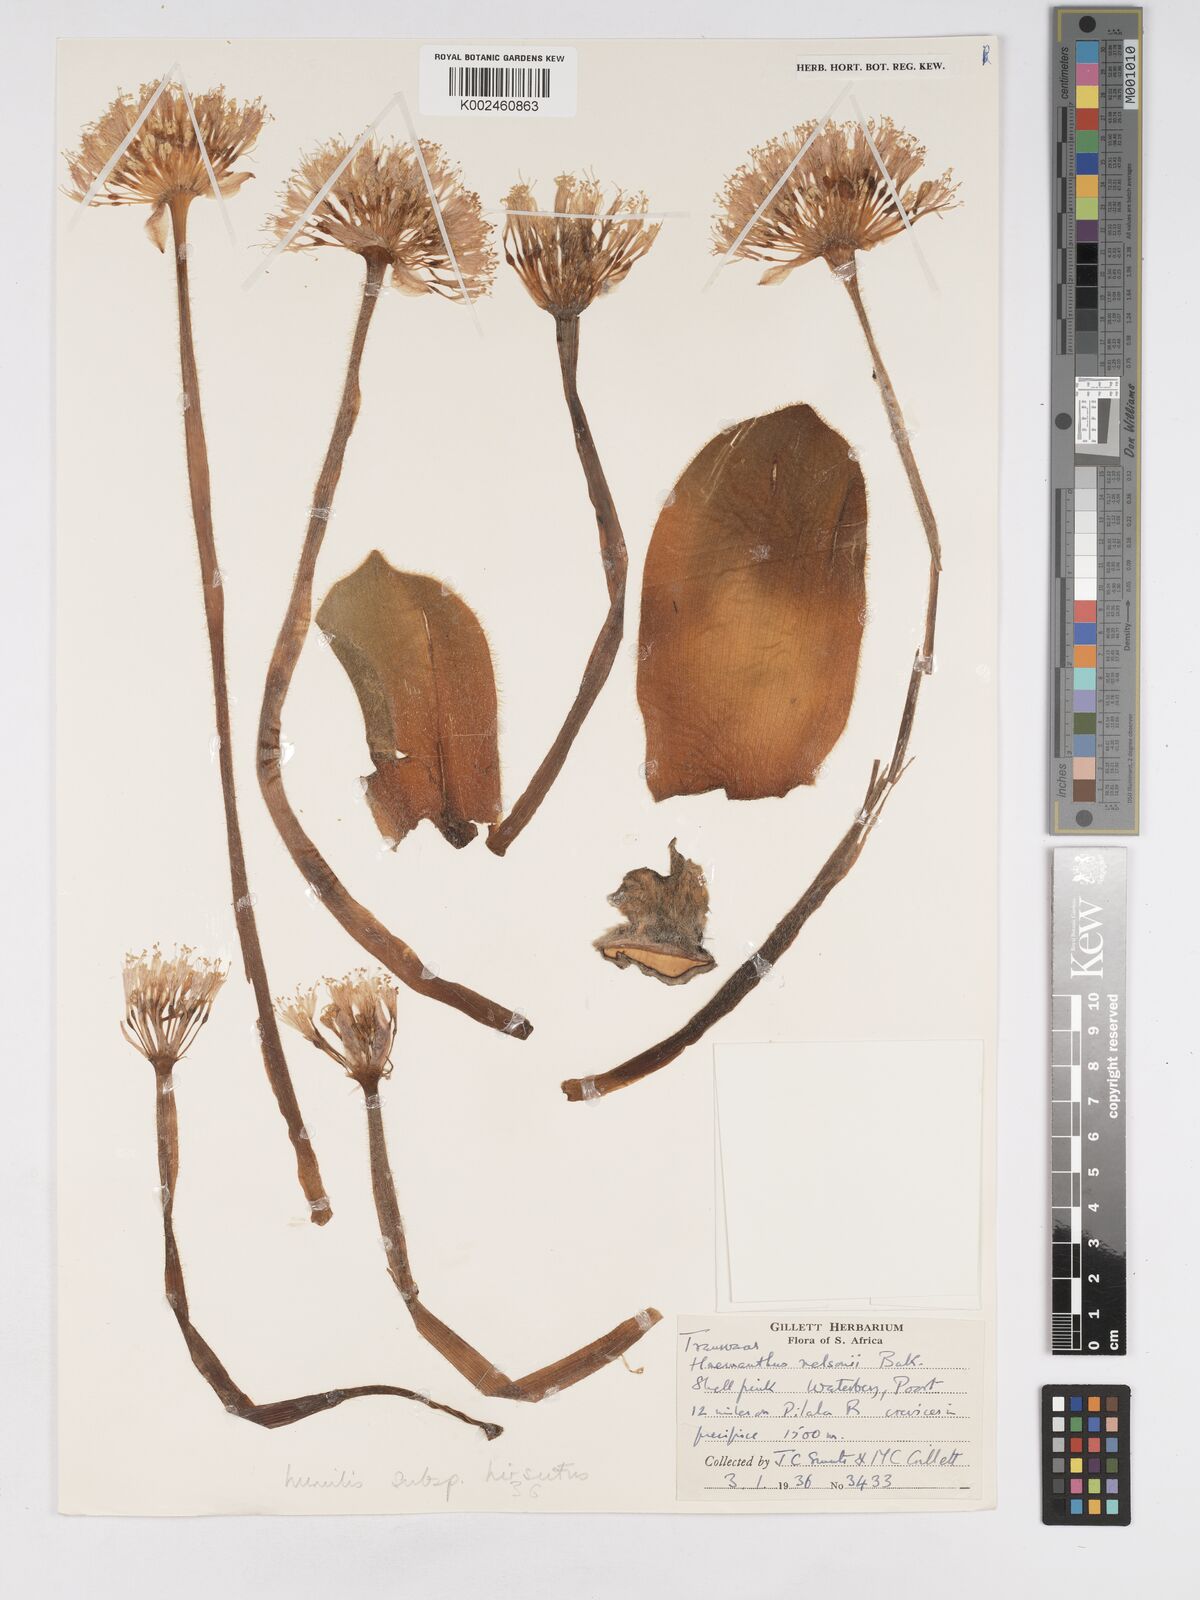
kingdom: Plantae
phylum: Tracheophyta
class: Liliopsida
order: Asparagales
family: Amaryllidaceae
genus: Haemanthus
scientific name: Haemanthus humilis
